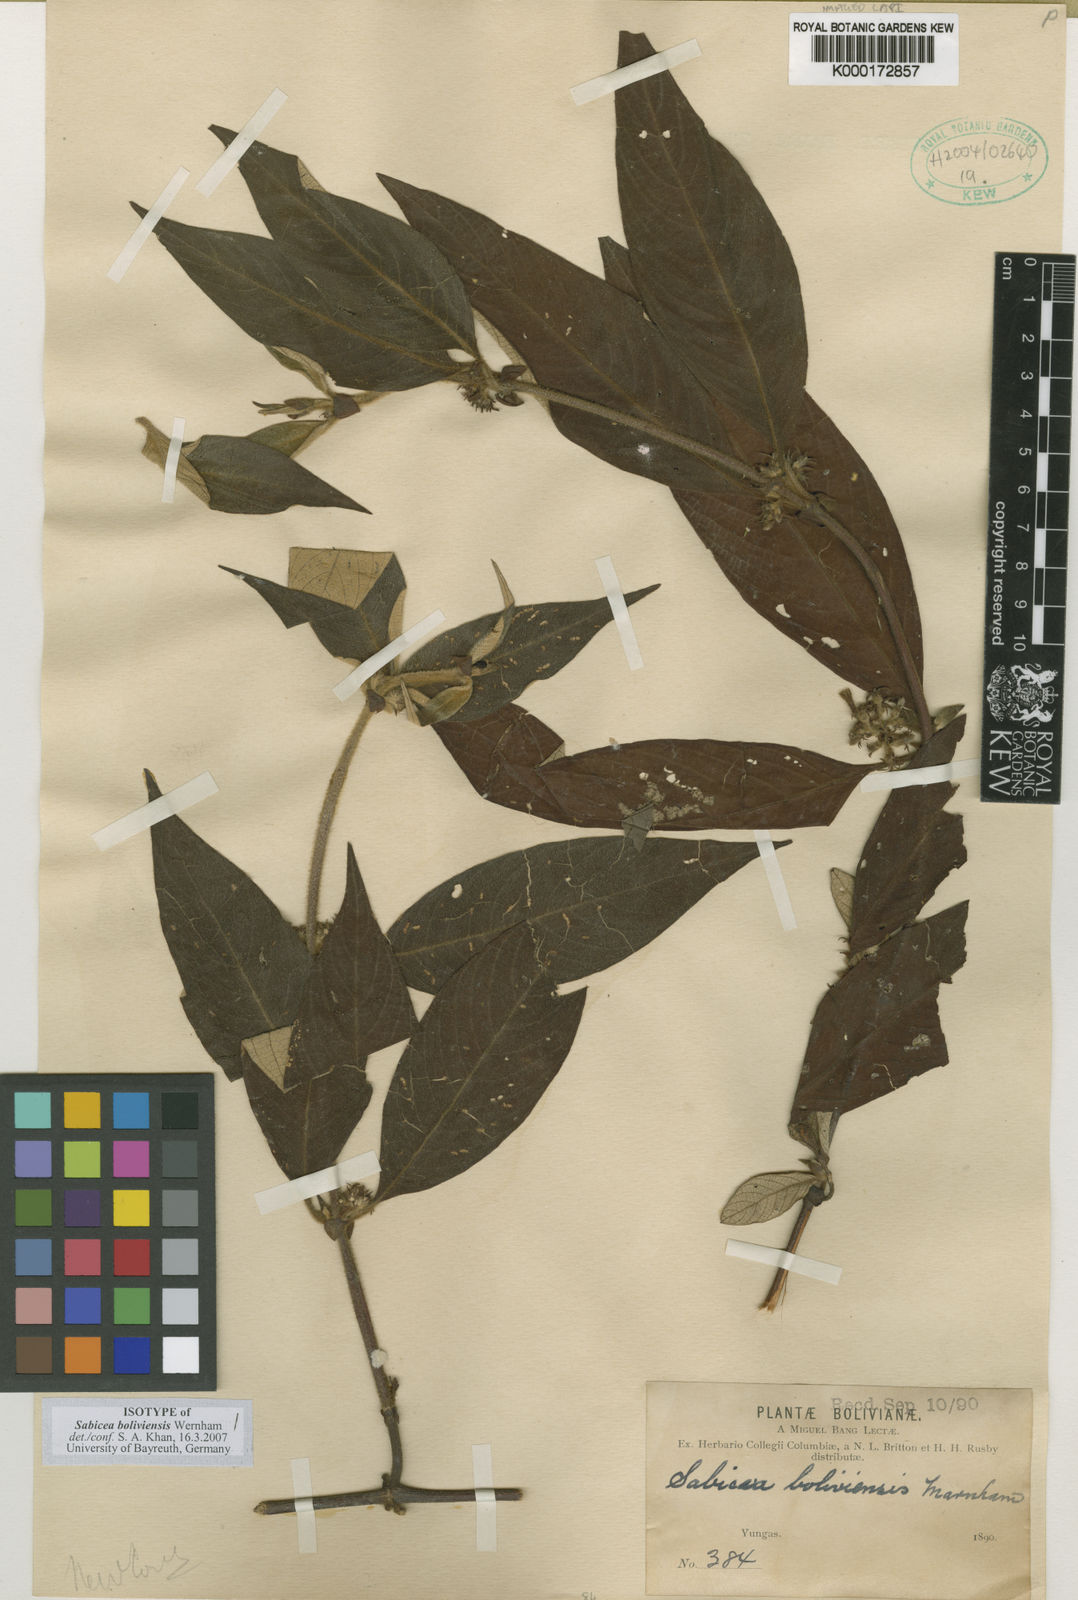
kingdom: Plantae
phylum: Tracheophyta
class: Magnoliopsida
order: Gentianales
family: Rubiaceae
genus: Sabicea
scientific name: Sabicea boliviensis
